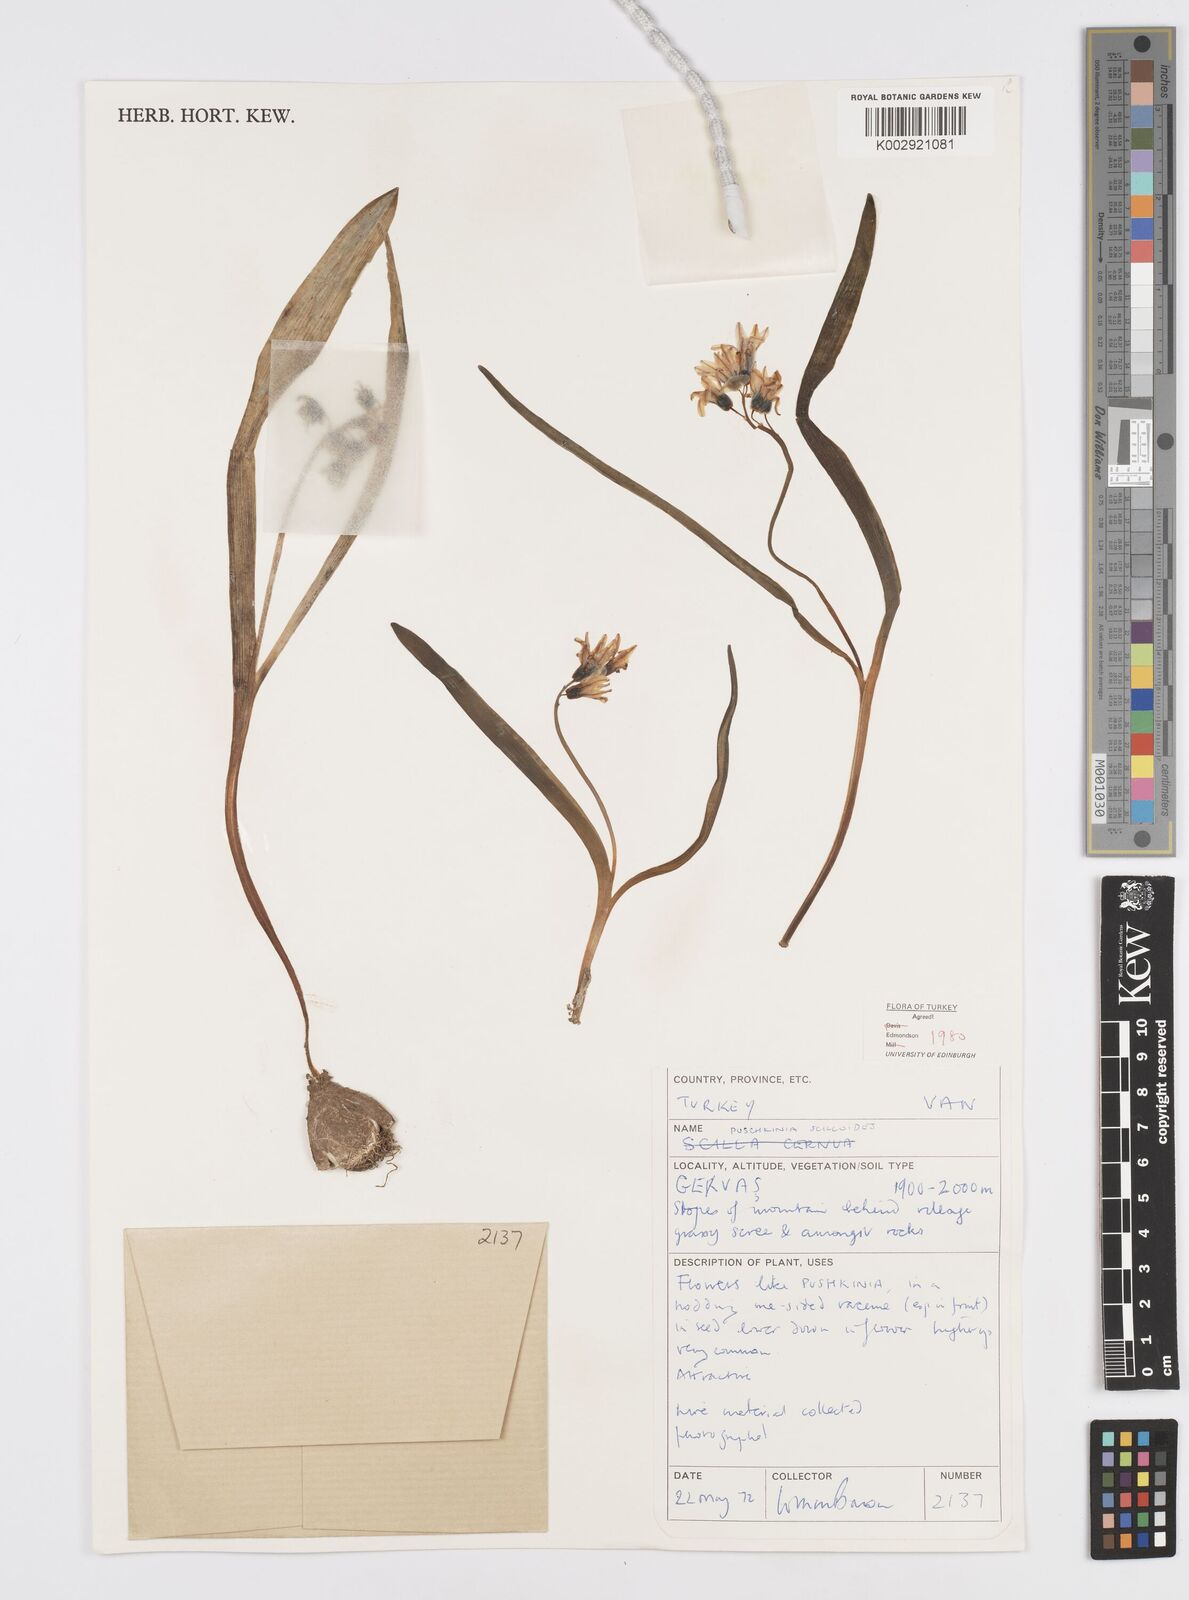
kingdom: Plantae
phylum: Tracheophyta
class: Liliopsida
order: Asparagales
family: Asparagaceae
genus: Puschkinia
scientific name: Puschkinia scilloides
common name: Striped squill
